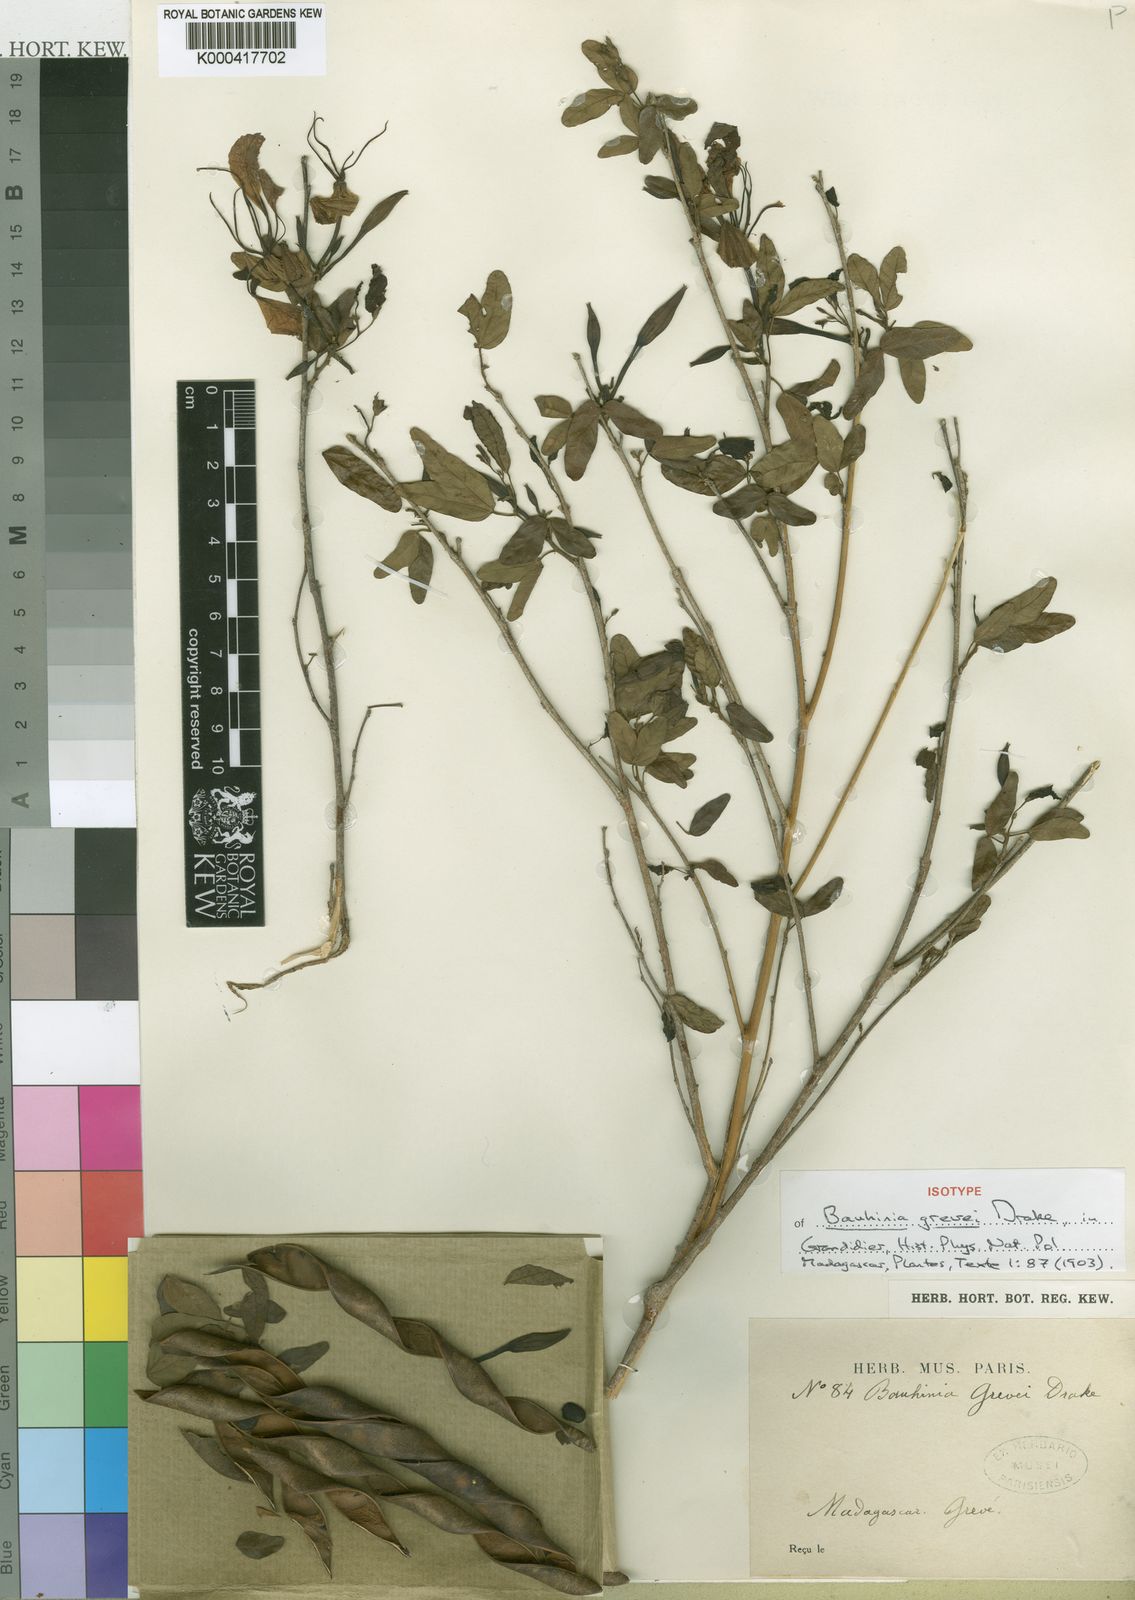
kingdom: Plantae
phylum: Tracheophyta
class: Magnoliopsida
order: Fabales
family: Fabaceae
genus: Bauhinia
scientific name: Bauhinia grevei
